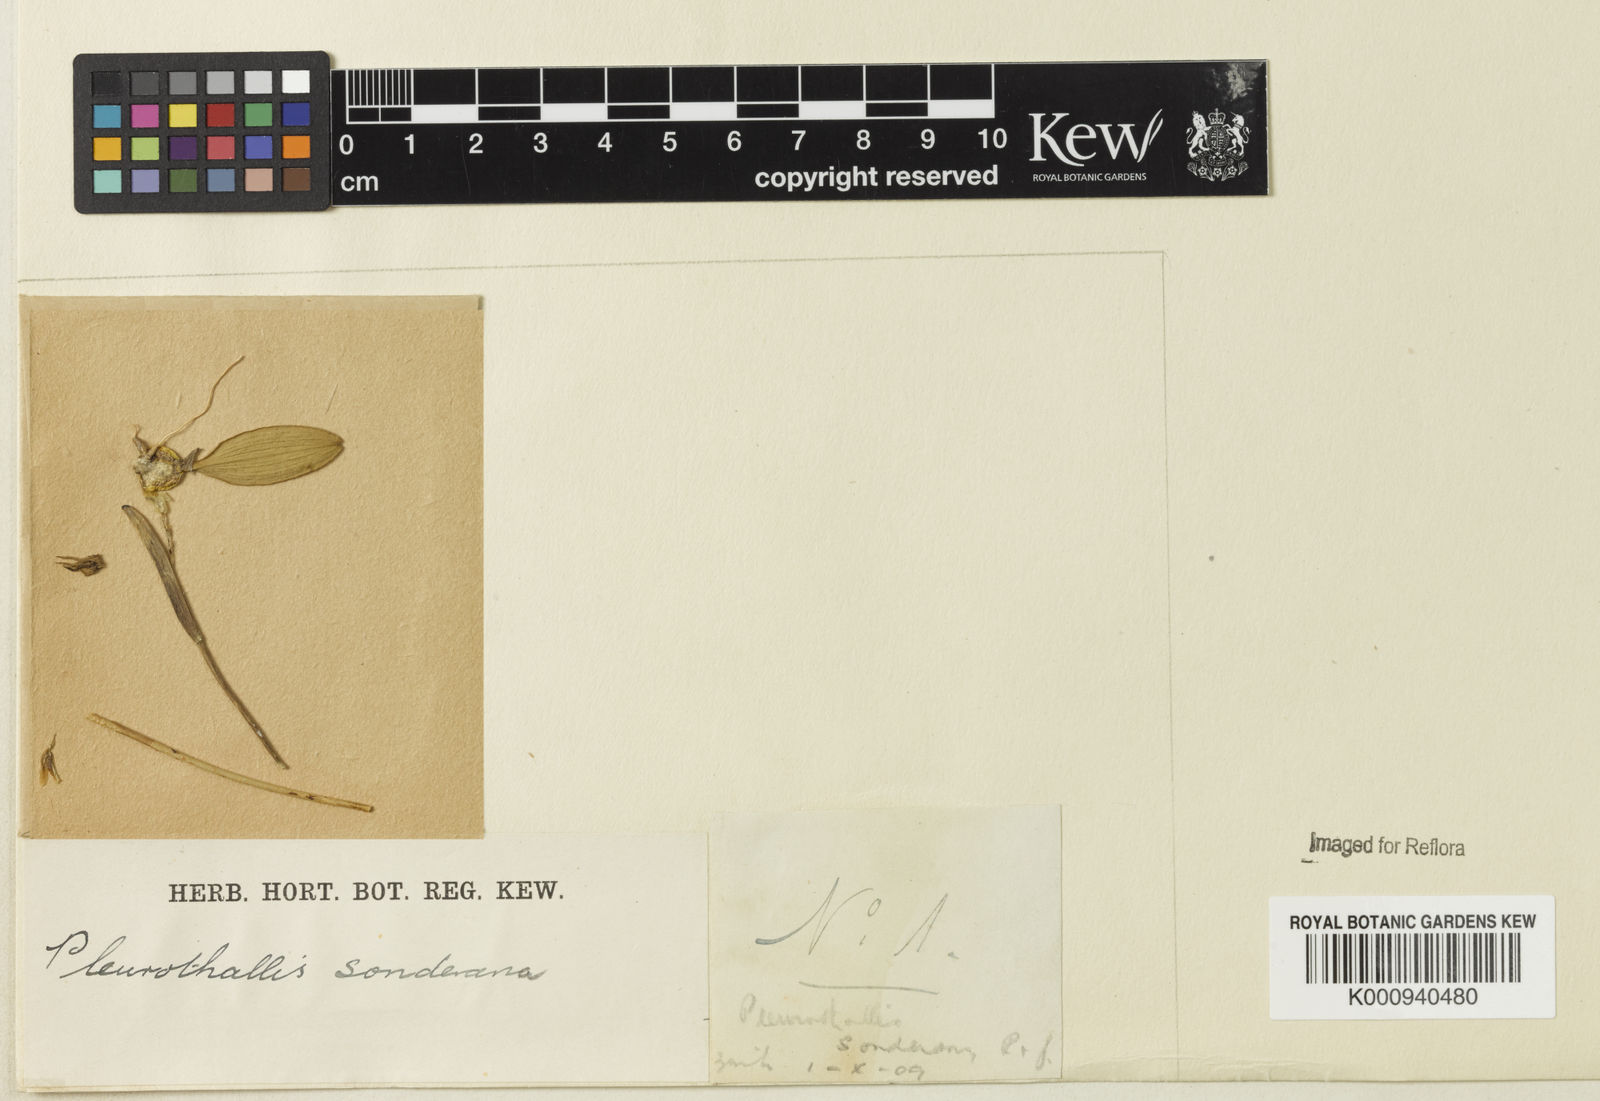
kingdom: Plantae
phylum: Tracheophyta
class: Liliopsida
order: Asparagales
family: Orchidaceae
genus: Acianthera
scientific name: Acianthera sonderiana
